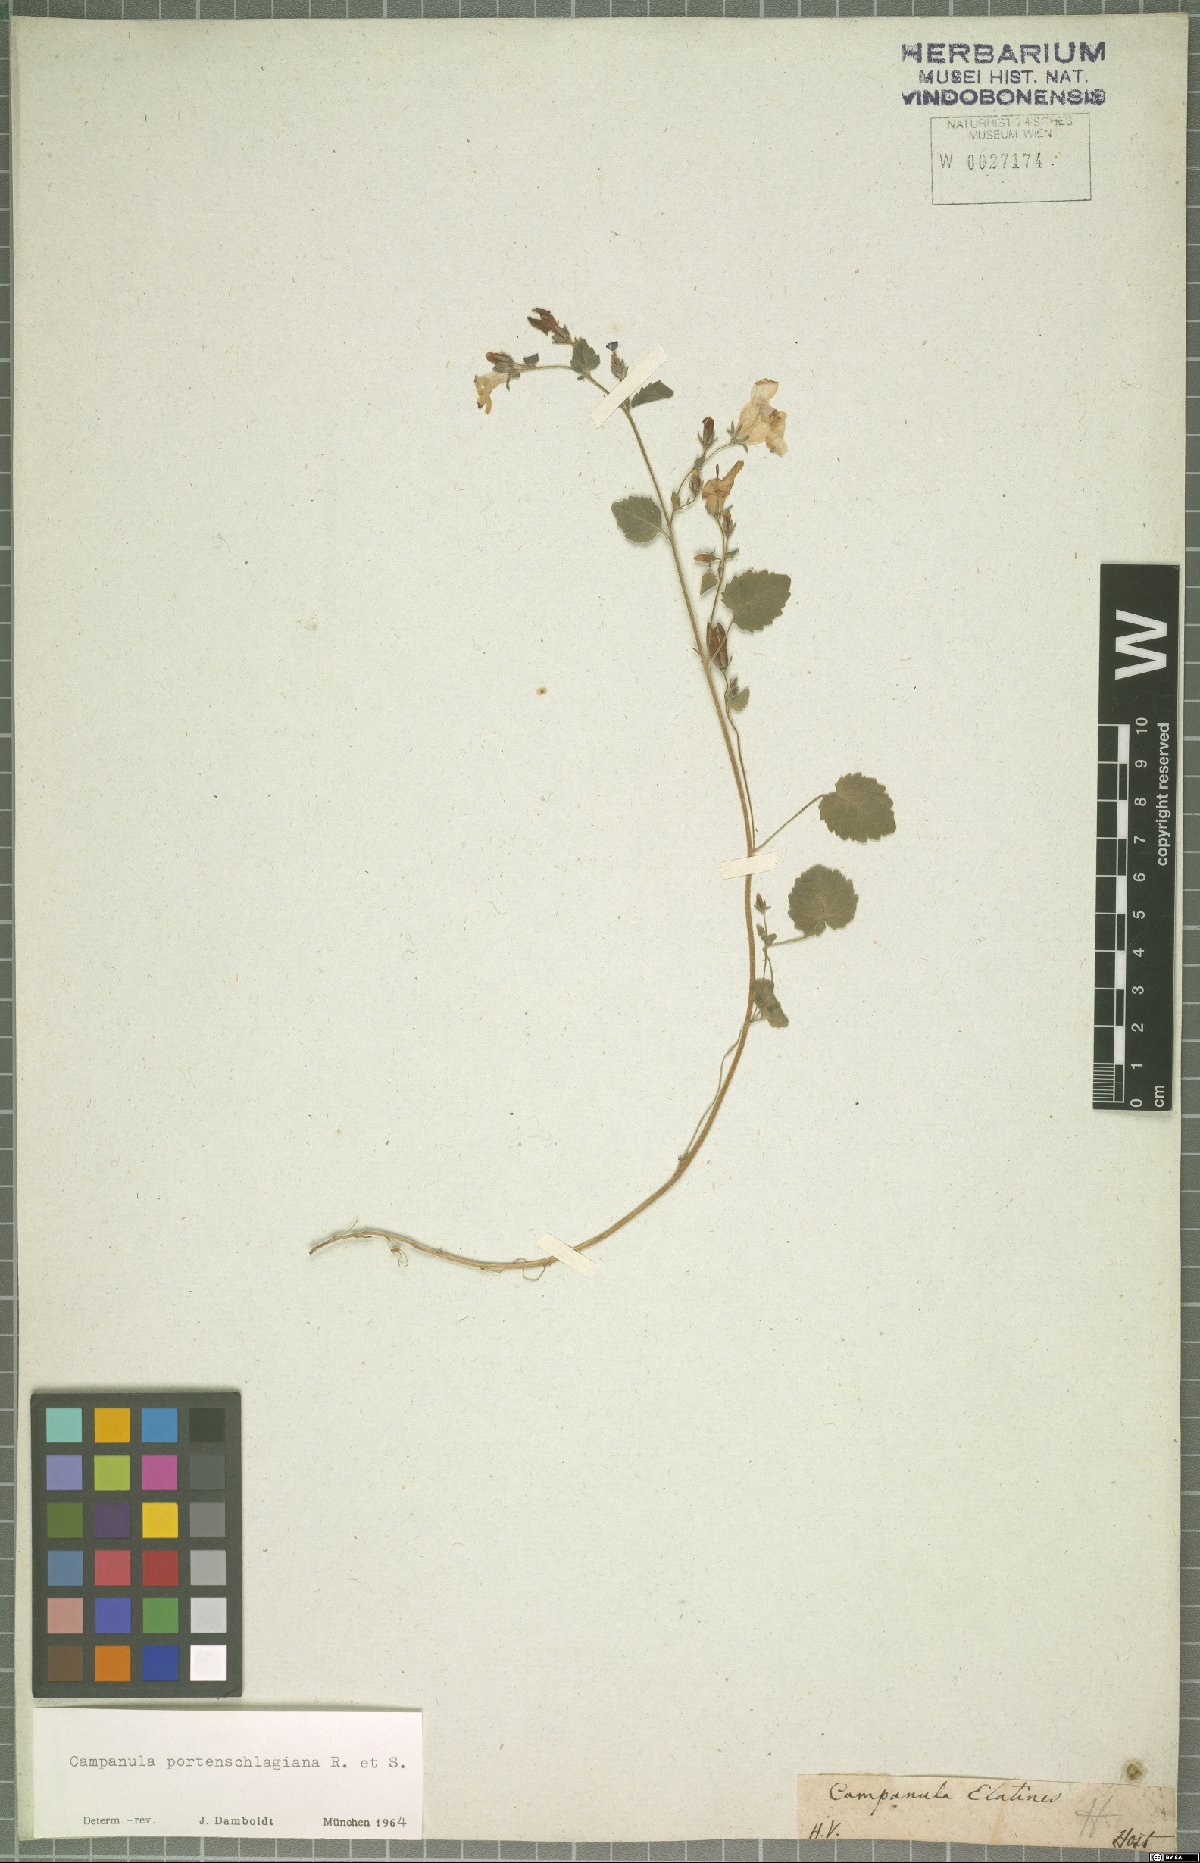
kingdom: Plantae
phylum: Tracheophyta
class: Magnoliopsida
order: Asterales
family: Campanulaceae
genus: Campanula
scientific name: Campanula portenschlagiana
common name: Adria bellflower
